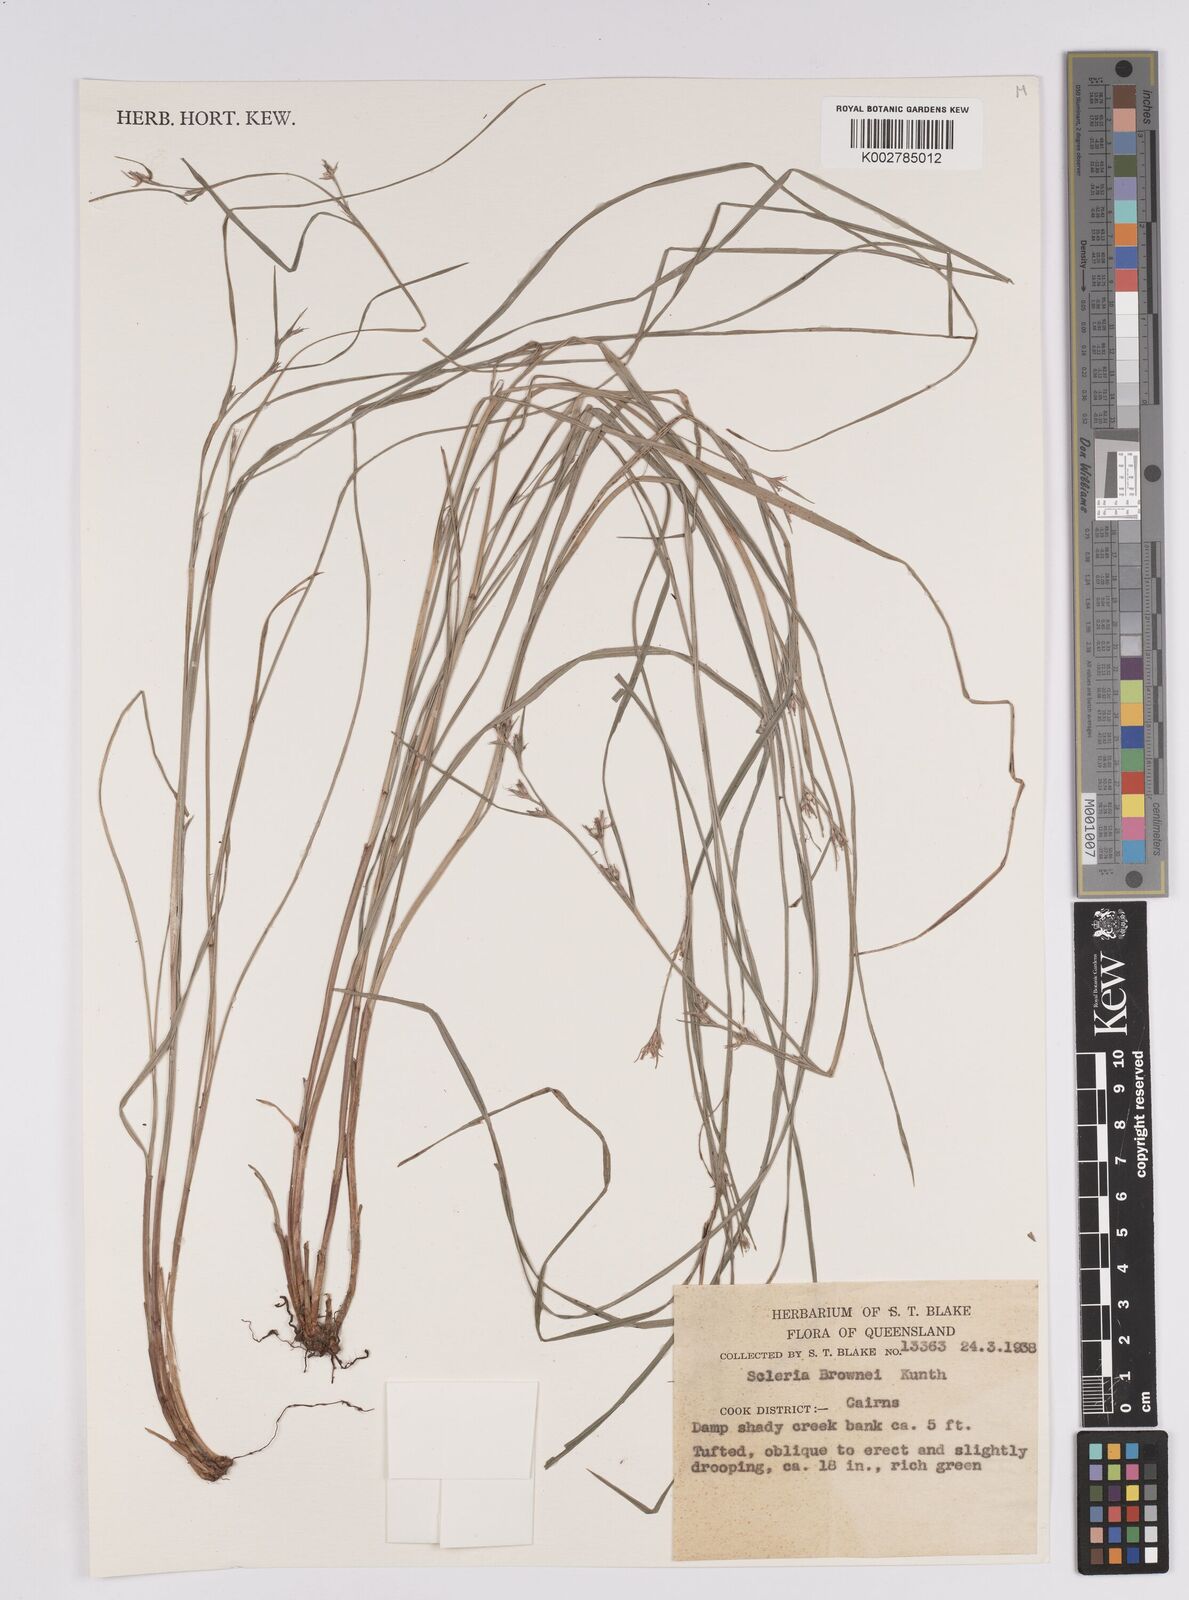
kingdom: Plantae
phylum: Tracheophyta
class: Liliopsida
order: Poales
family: Cyperaceae
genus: Scleria
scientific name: Scleria brownii
